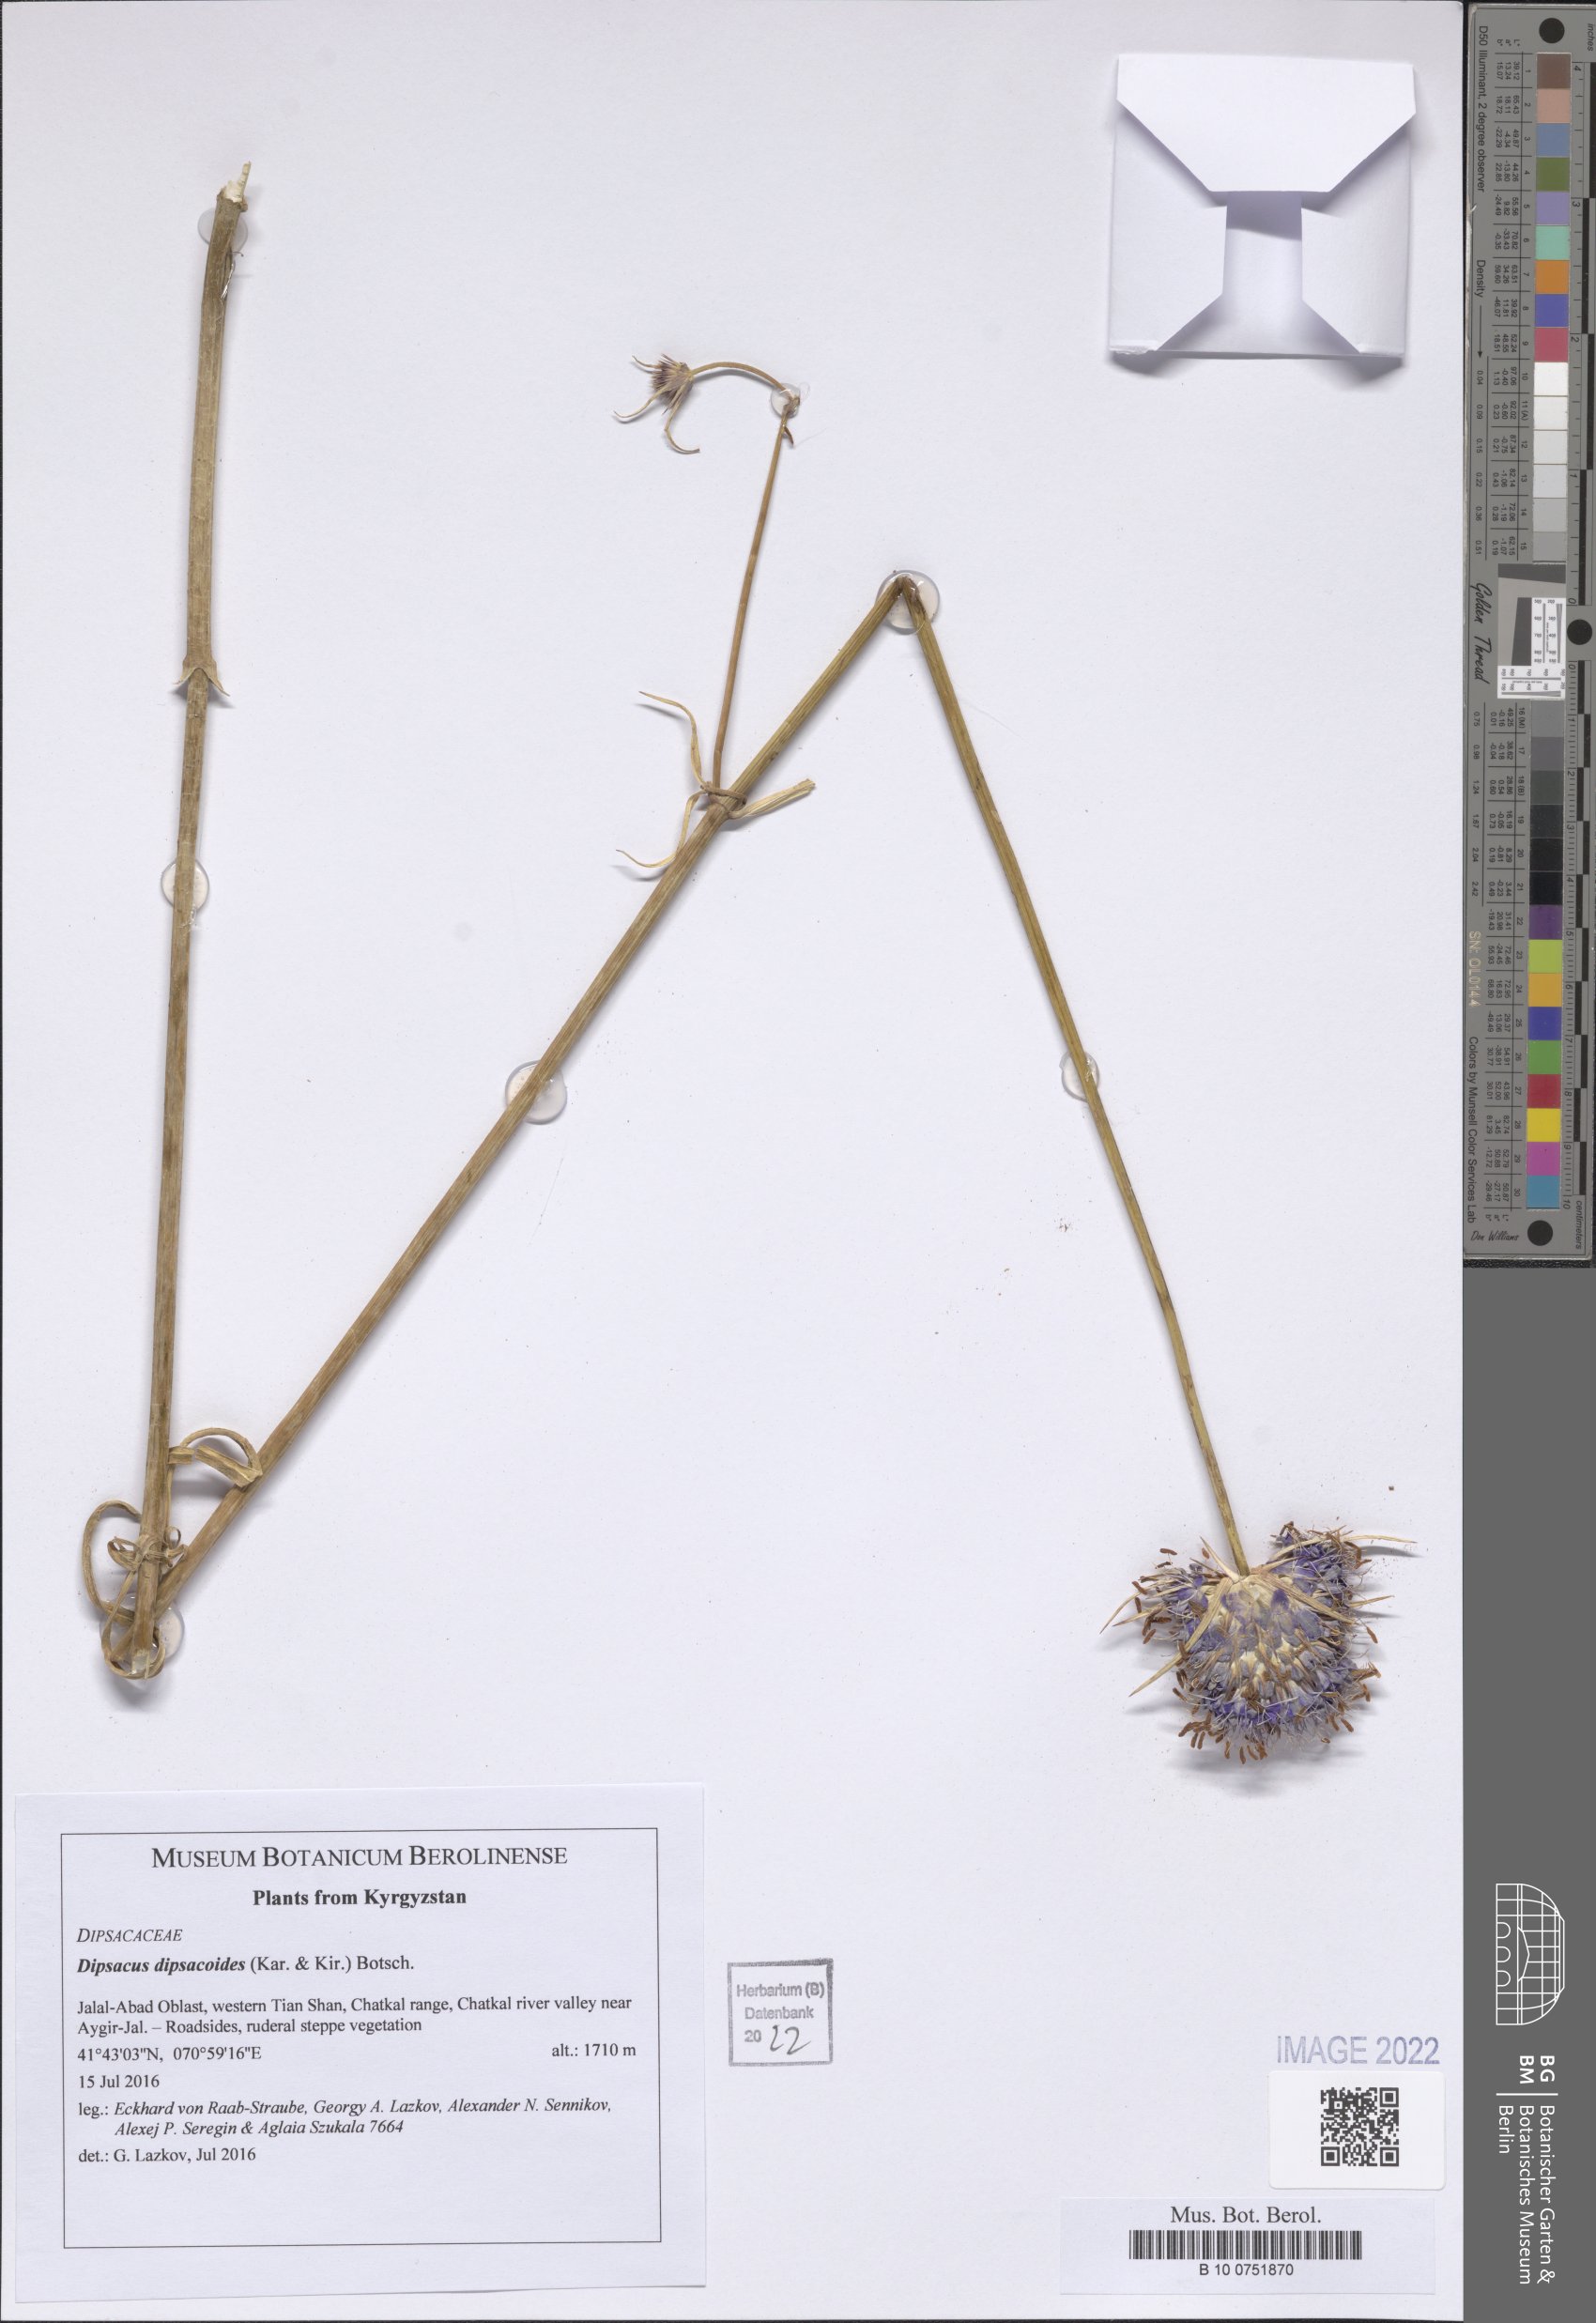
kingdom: Plantae
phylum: Tracheophyta
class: Magnoliopsida
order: Dipsacales
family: Caprifoliaceae
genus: Dipsacus
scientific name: Dipsacus azureus
